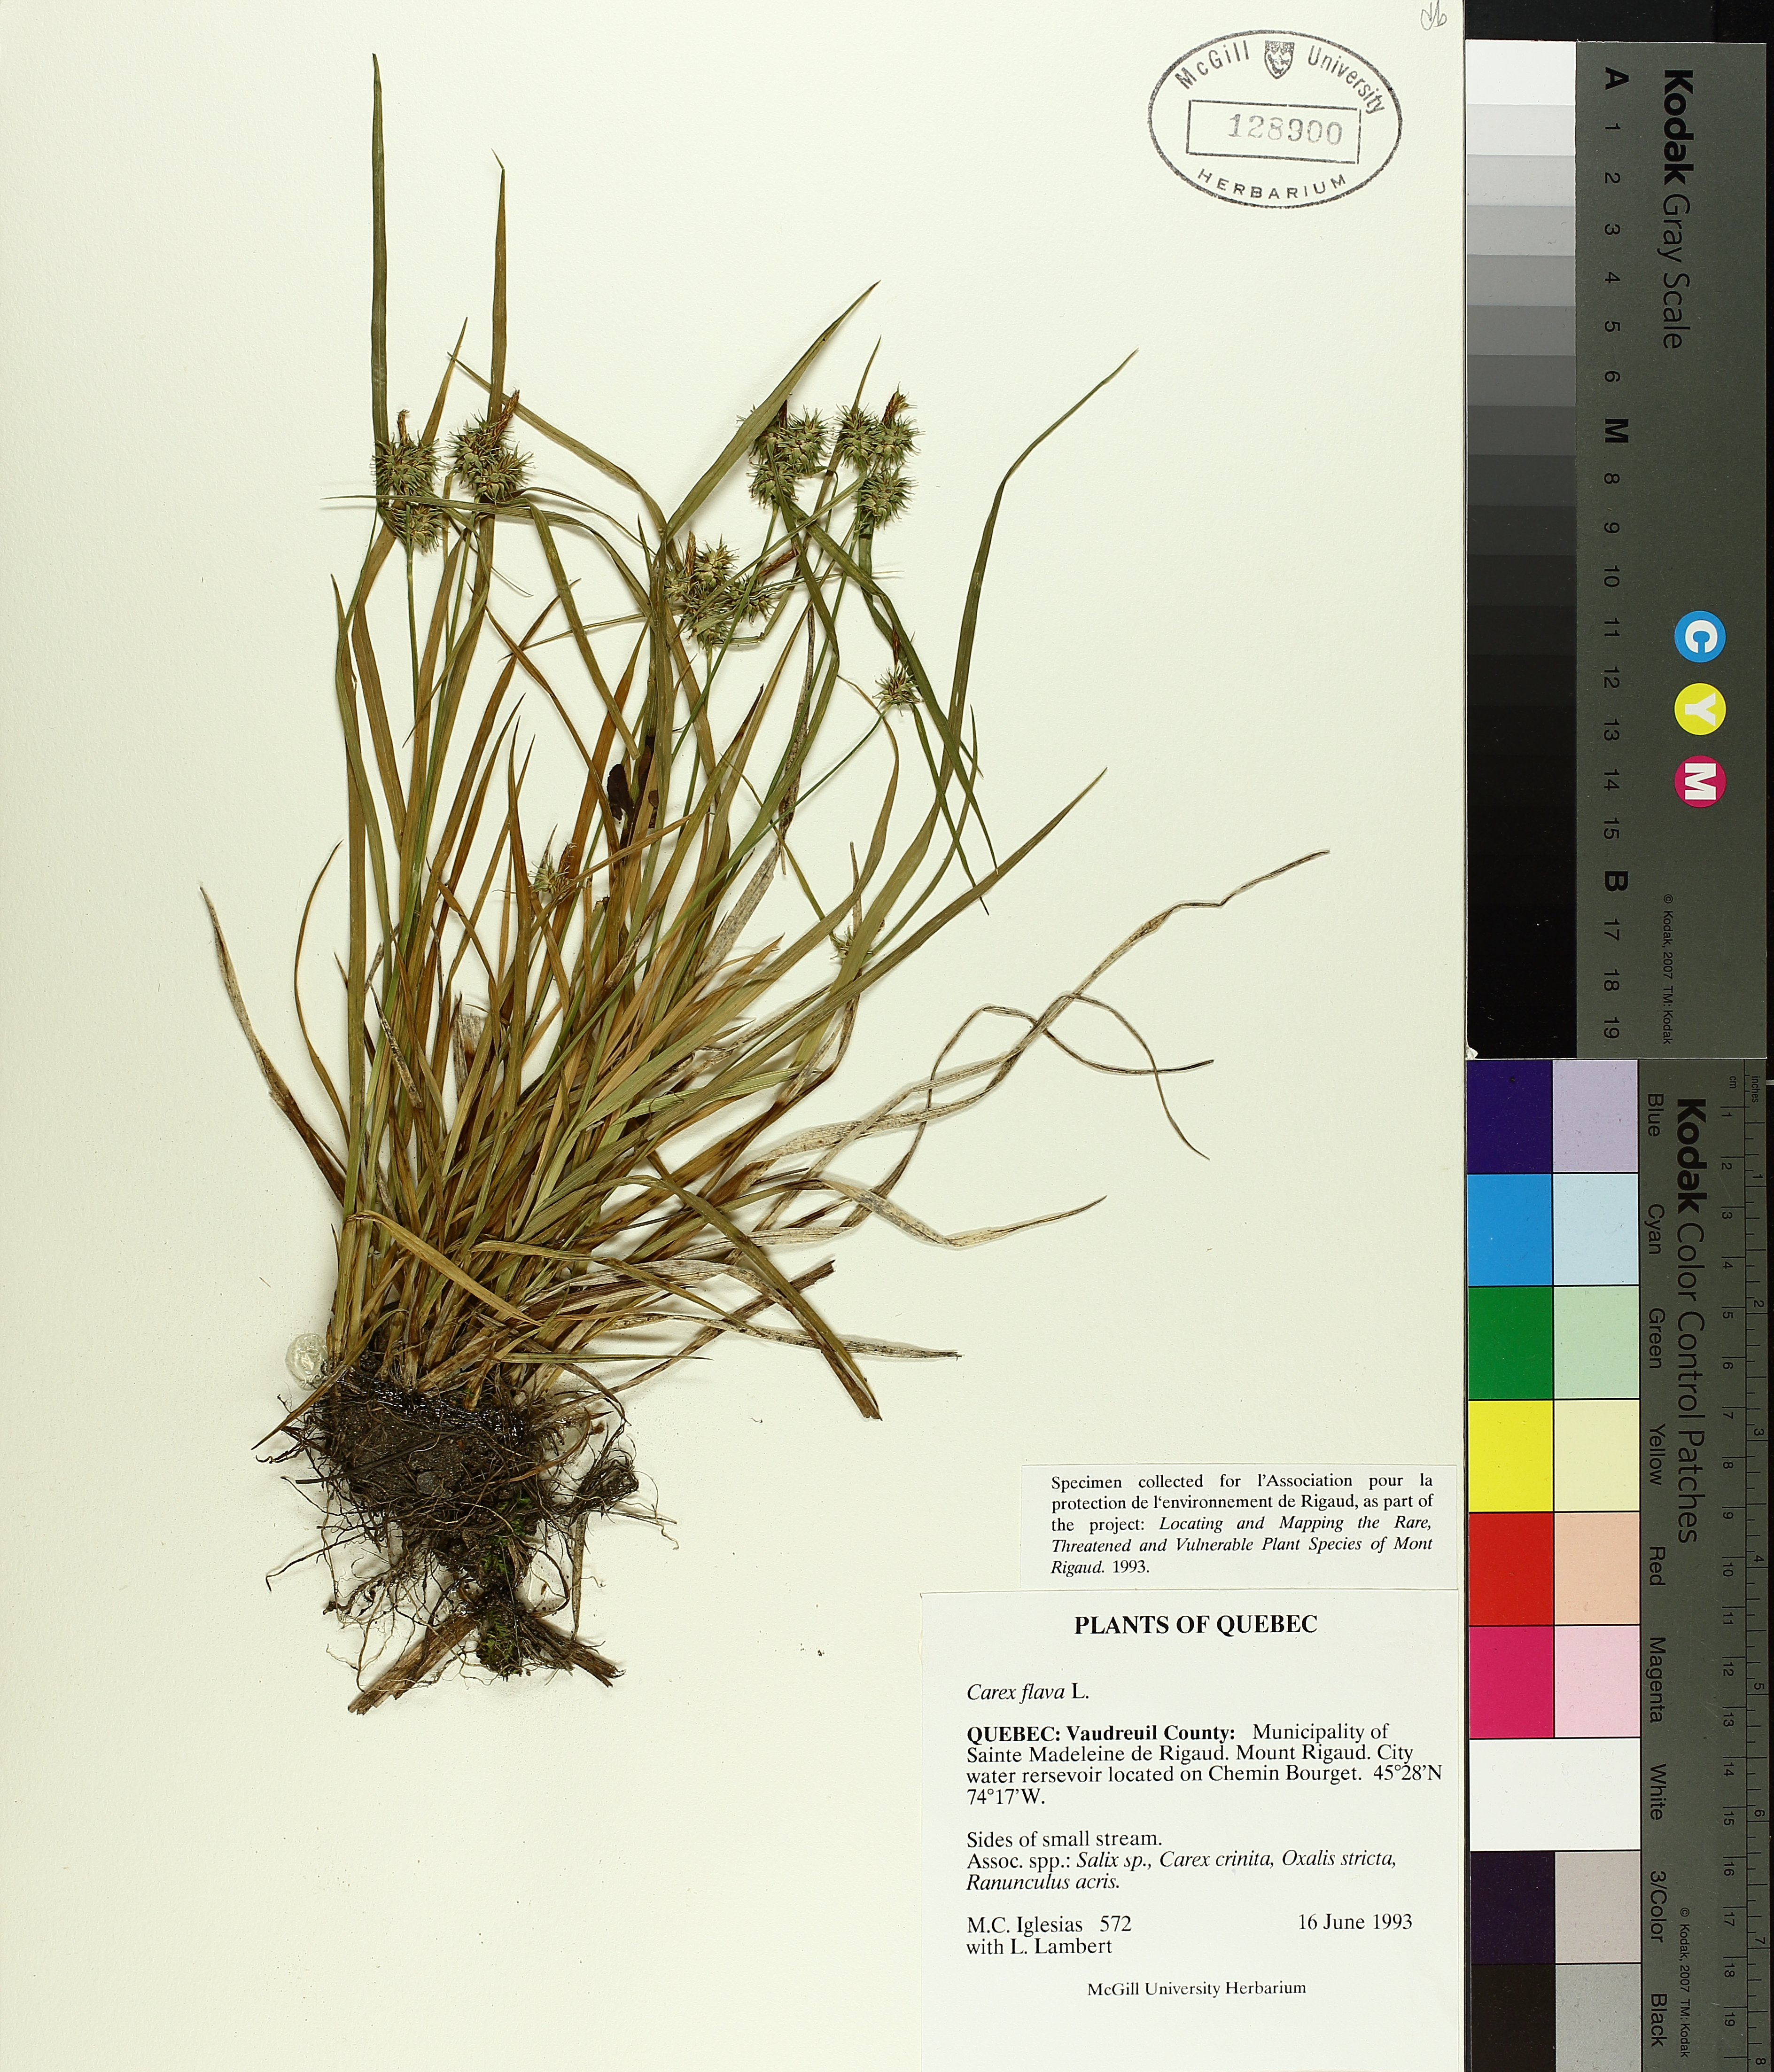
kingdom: Plantae
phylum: Tracheophyta
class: Liliopsida
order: Poales
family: Cyperaceae
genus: Carex
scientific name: Carex flava
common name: Large yellow-sedge
